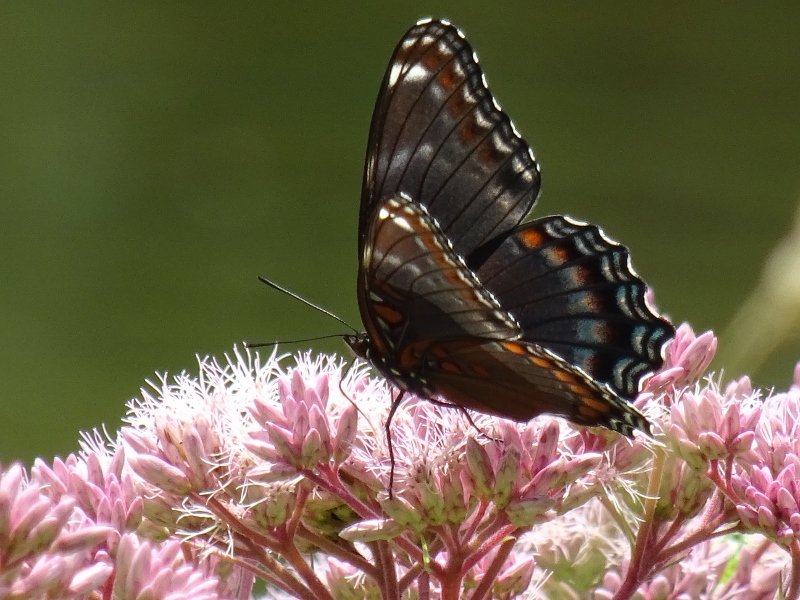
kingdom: Animalia
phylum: Arthropoda
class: Insecta
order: Lepidoptera
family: Nymphalidae
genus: Limenitis
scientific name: Limenitis astyanax
